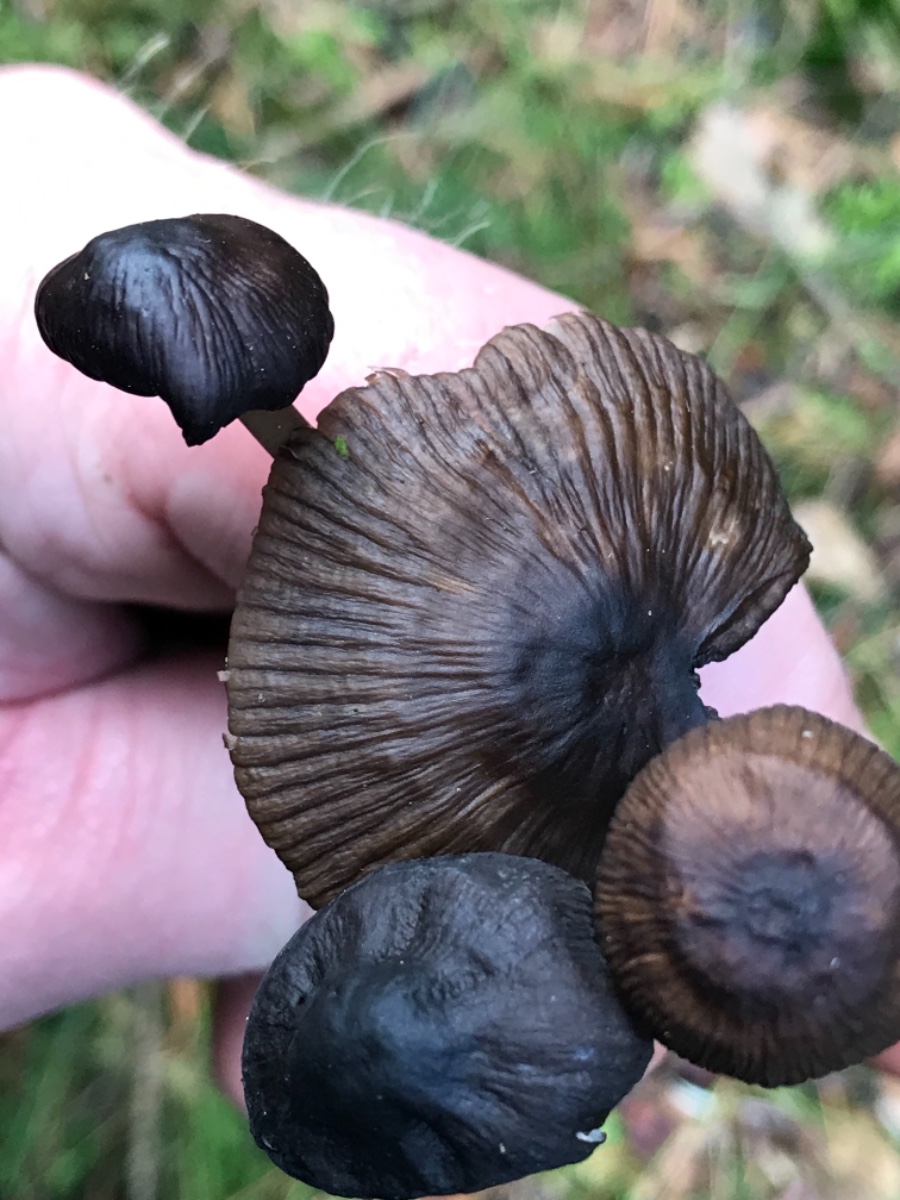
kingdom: Fungi
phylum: Basidiomycota
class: Agaricomycetes
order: Agaricales
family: Mycenaceae
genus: Mycena
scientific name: Mycena megaspora
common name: brusk-huesvamp
